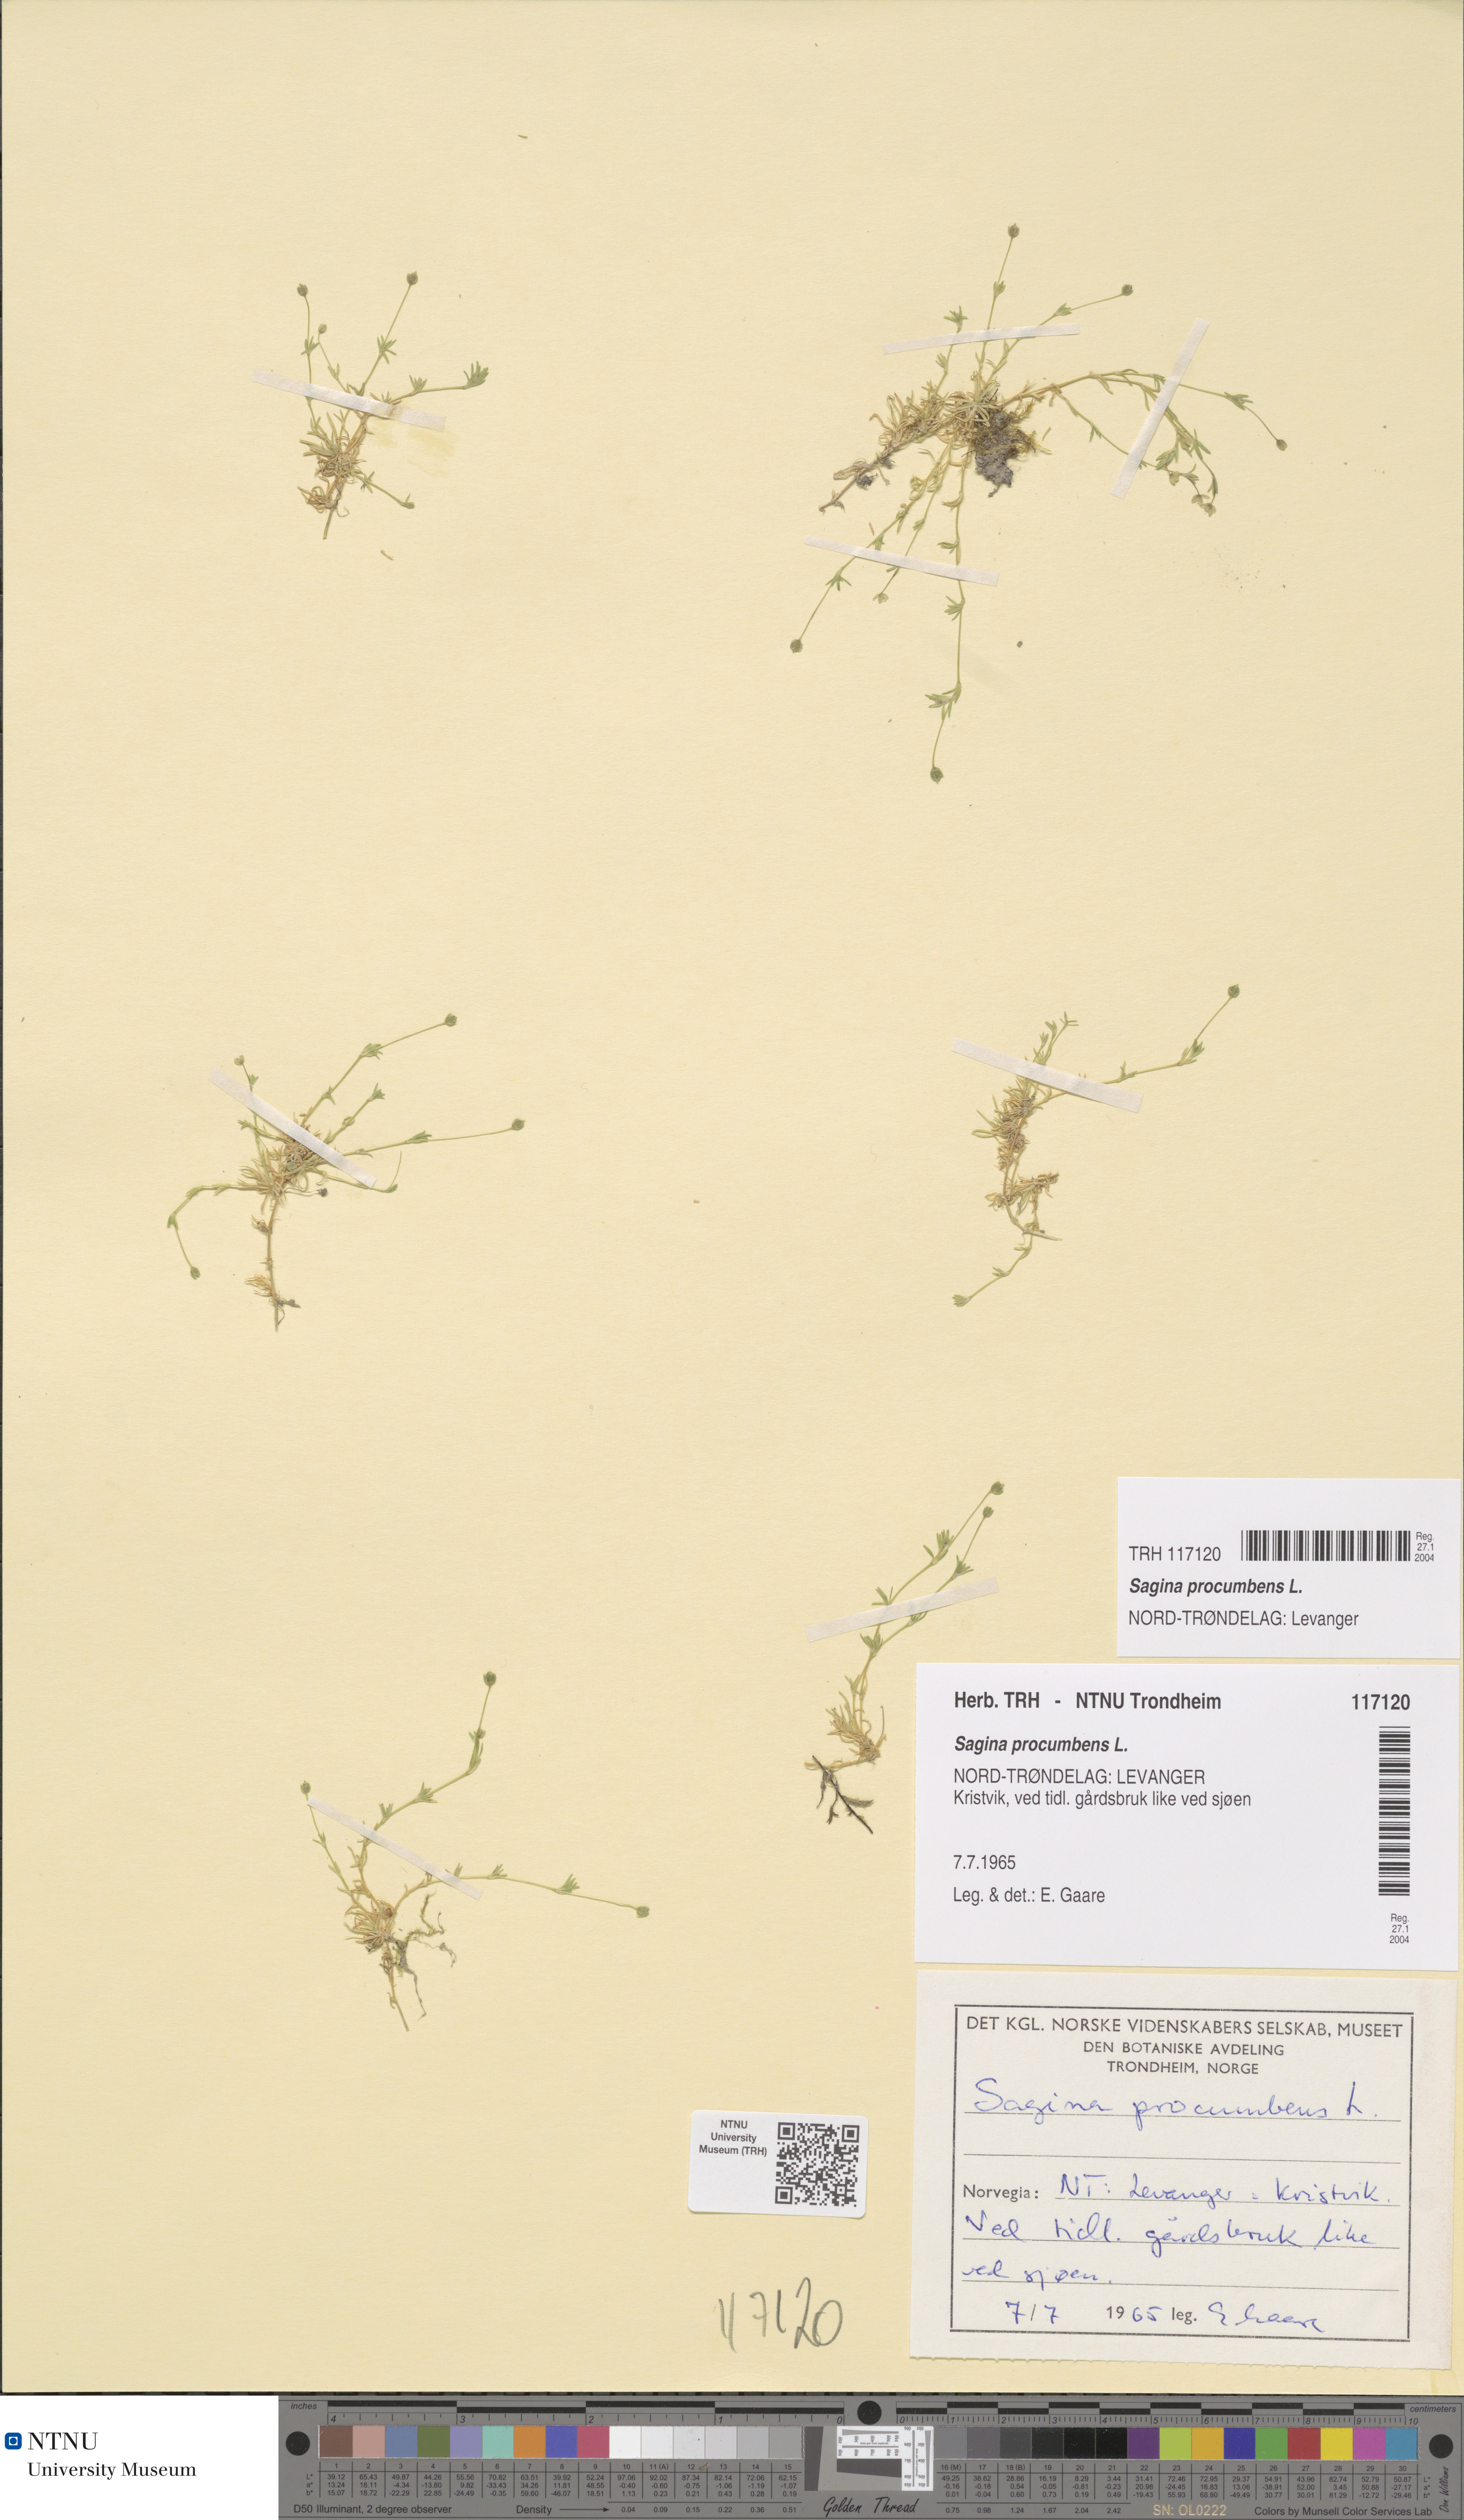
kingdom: Plantae
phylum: Tracheophyta
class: Magnoliopsida
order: Caryophyllales
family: Caryophyllaceae
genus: Sagina
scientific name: Sagina procumbens
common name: Procumbent pearlwort
